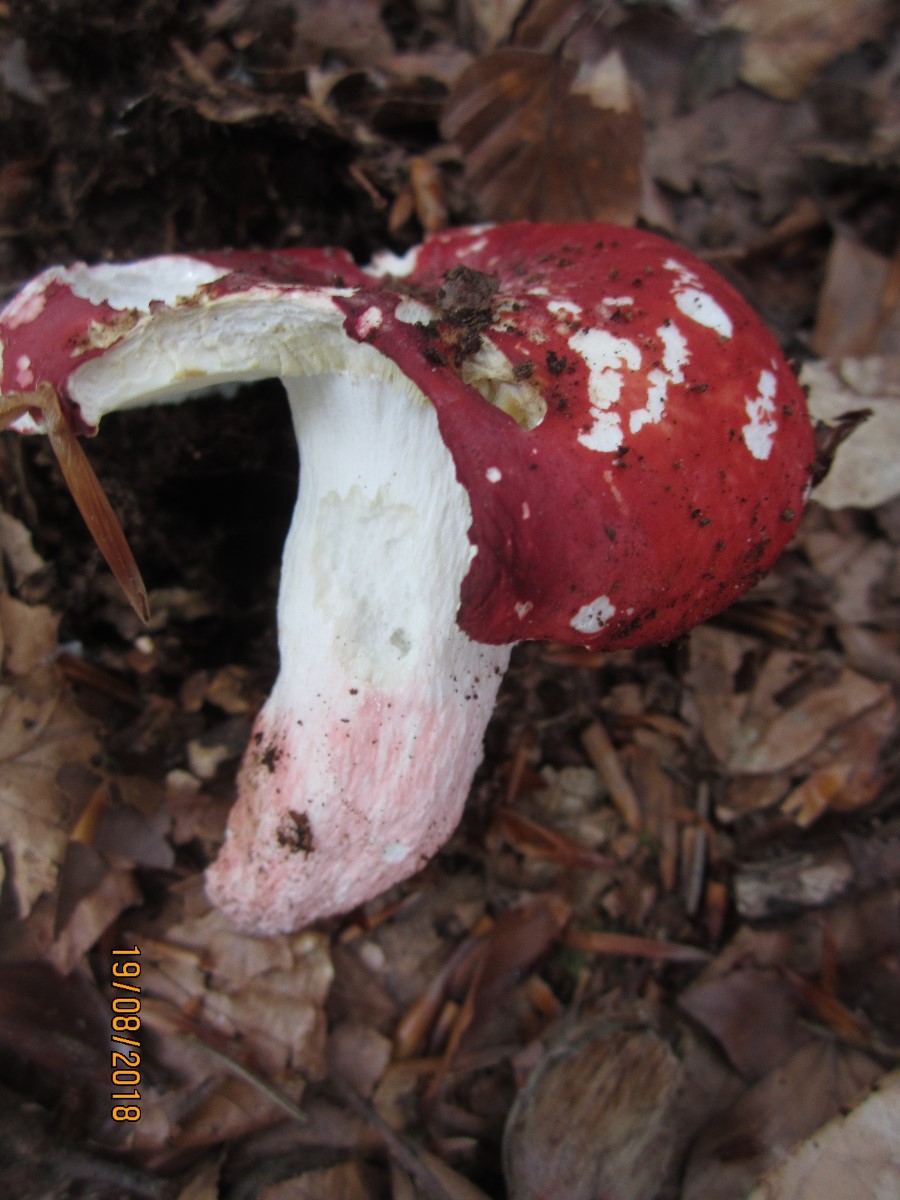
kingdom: Fungi
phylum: Basidiomycota
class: Agaricomycetes
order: Russulales
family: Russulaceae
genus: Russula
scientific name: Russula rosea
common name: fastkødet skørhat
